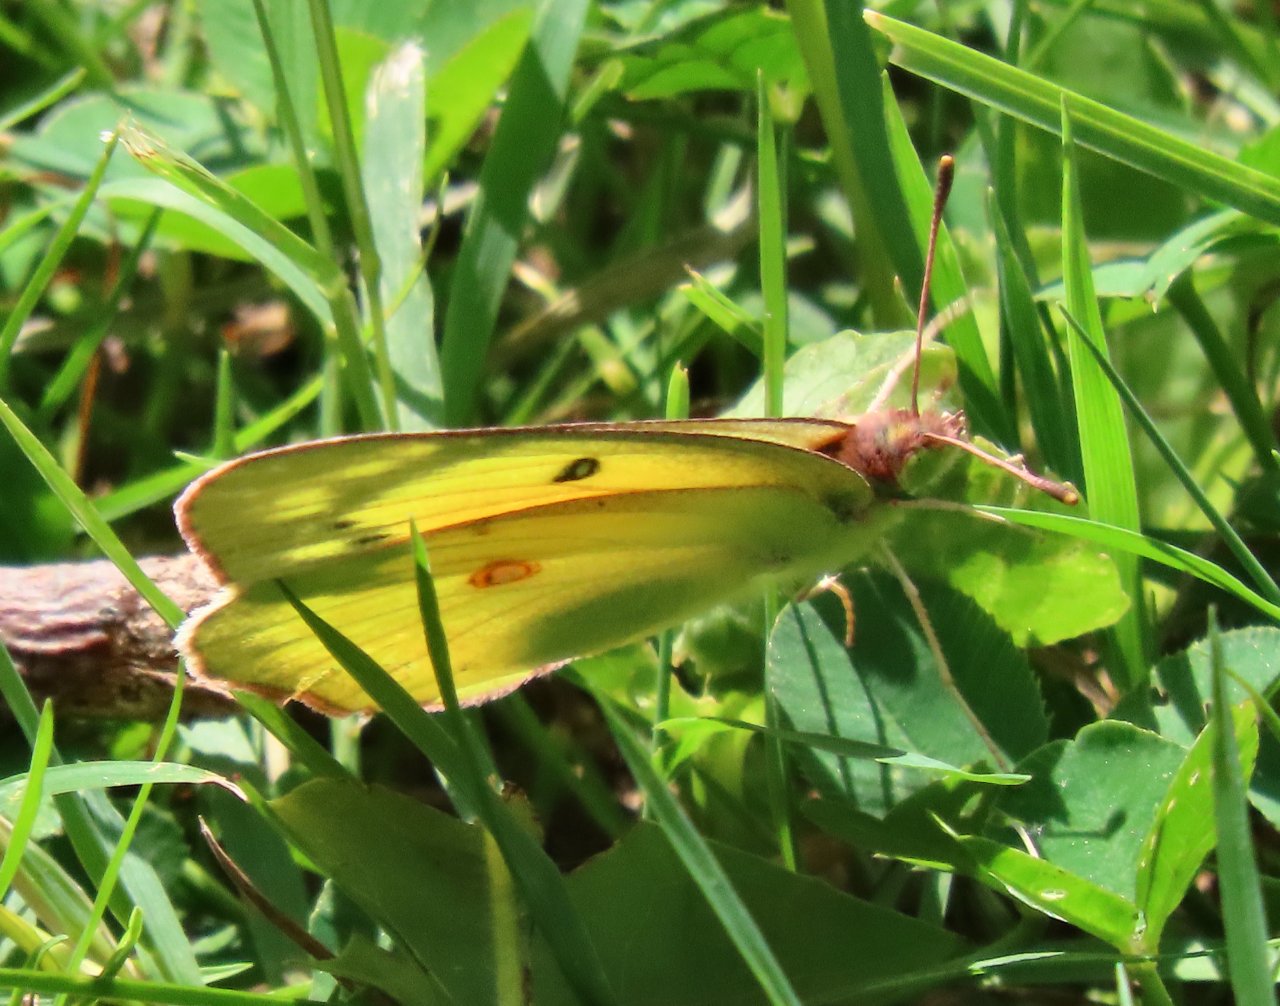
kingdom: Animalia
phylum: Arthropoda
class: Insecta
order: Lepidoptera
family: Pieridae
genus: Colias
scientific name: Colias eurytheme
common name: Orange Sulphur
